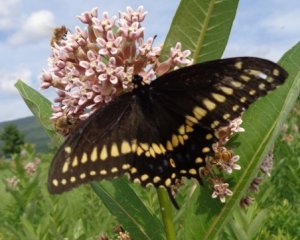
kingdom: Animalia
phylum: Arthropoda
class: Insecta
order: Lepidoptera
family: Papilionidae
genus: Papilio
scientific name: Papilio polyxenes
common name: Black Swallowtail
